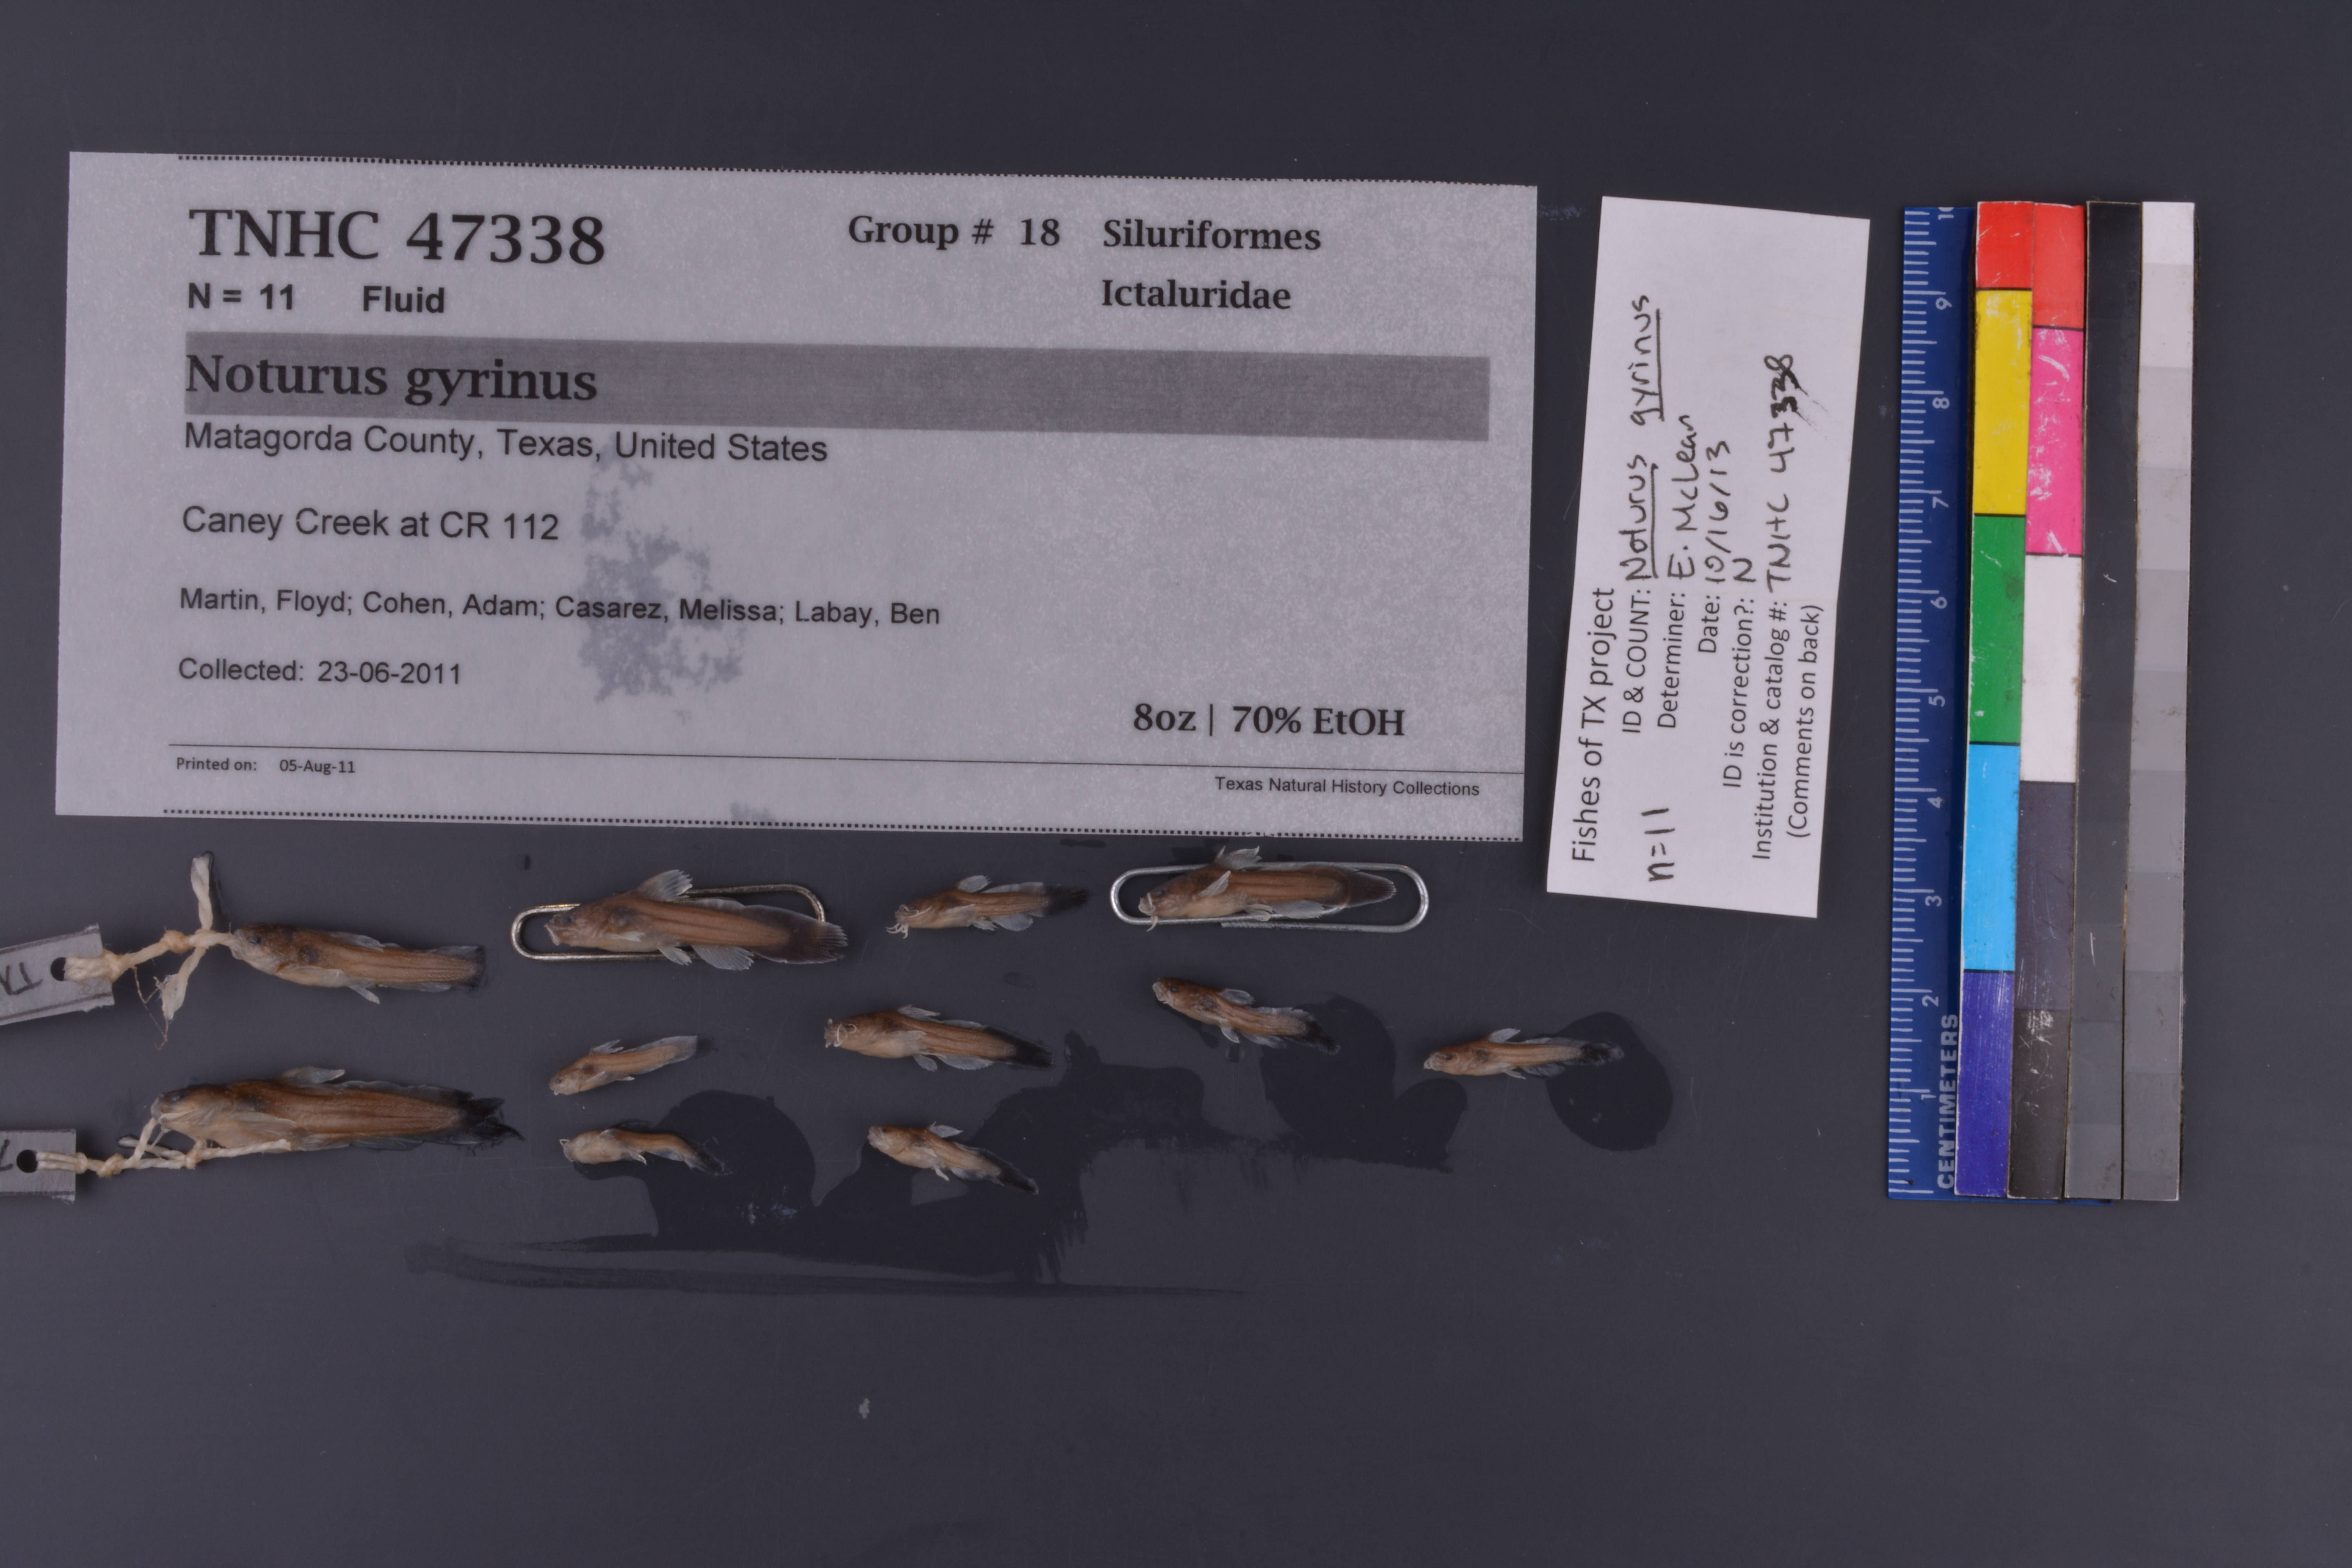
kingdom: Animalia
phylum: Chordata
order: Siluriformes
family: Ictaluridae
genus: Noturus
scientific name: Noturus gyrinus
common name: Tadpole madtom
